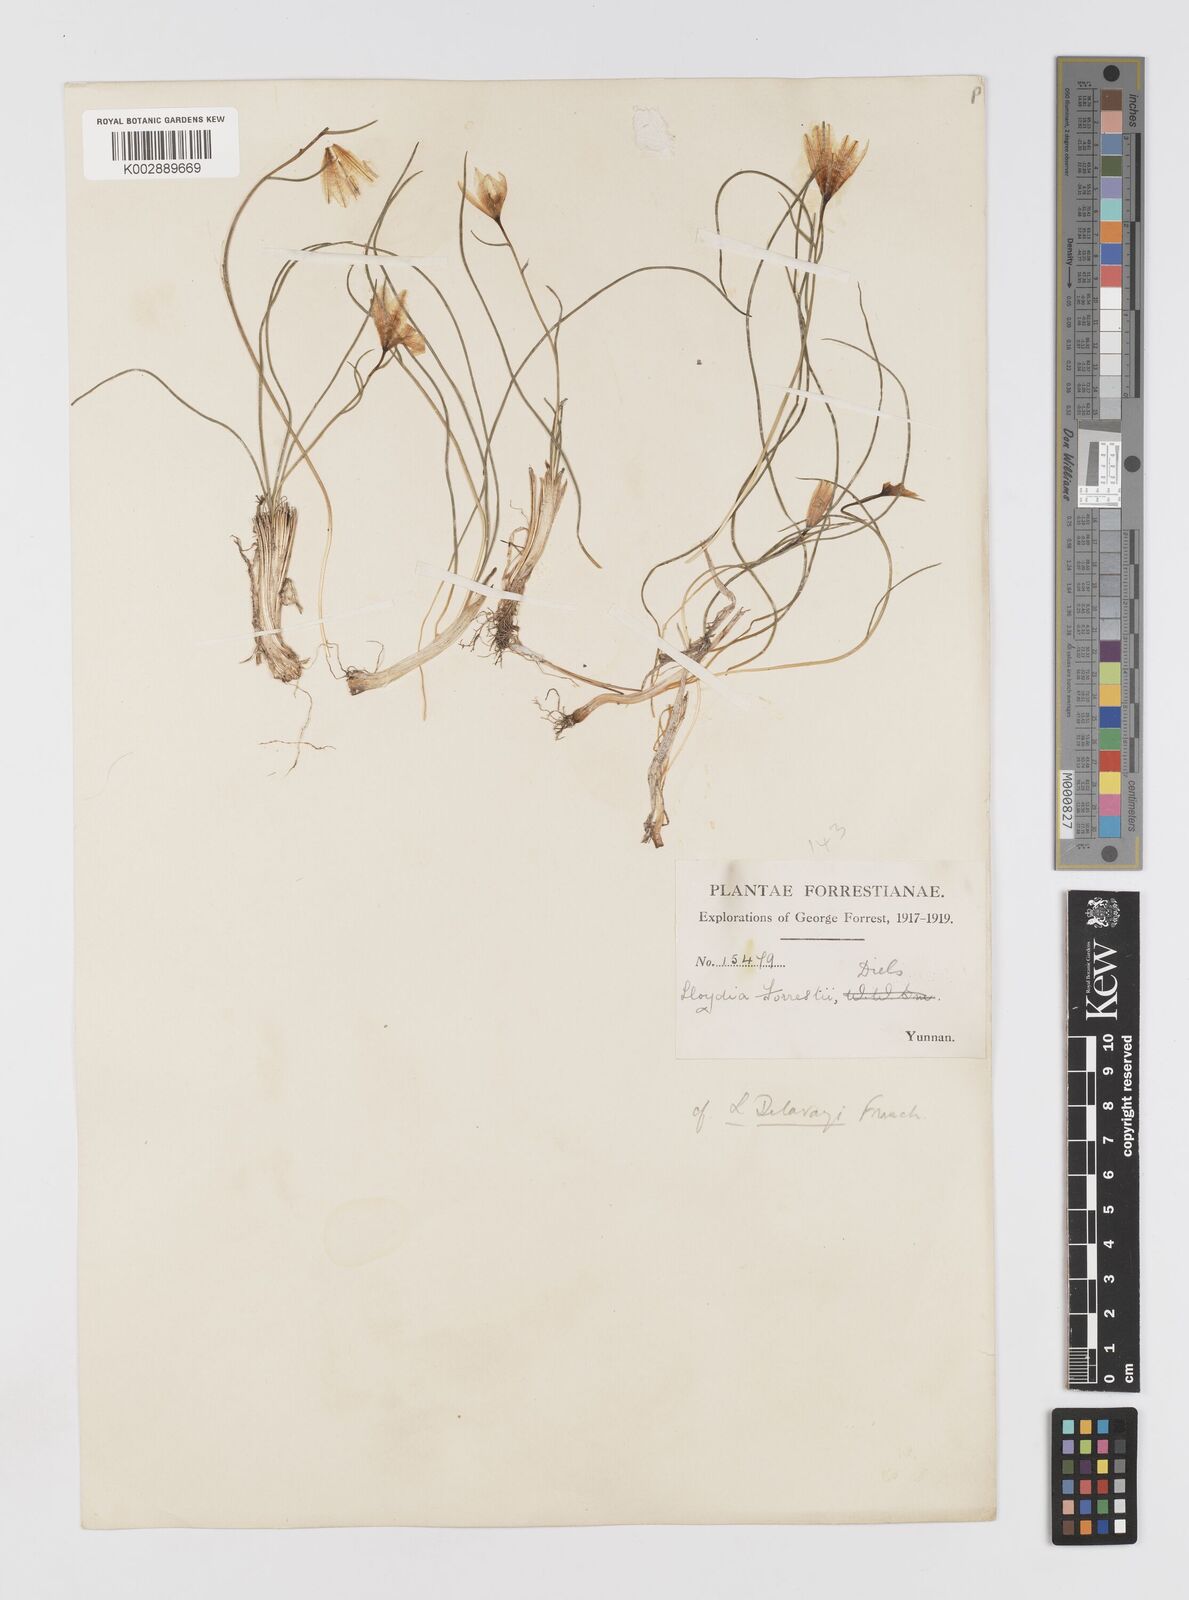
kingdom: Plantae
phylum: Tracheophyta
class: Liliopsida
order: Liliales
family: Liliaceae
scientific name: Liliaceae
